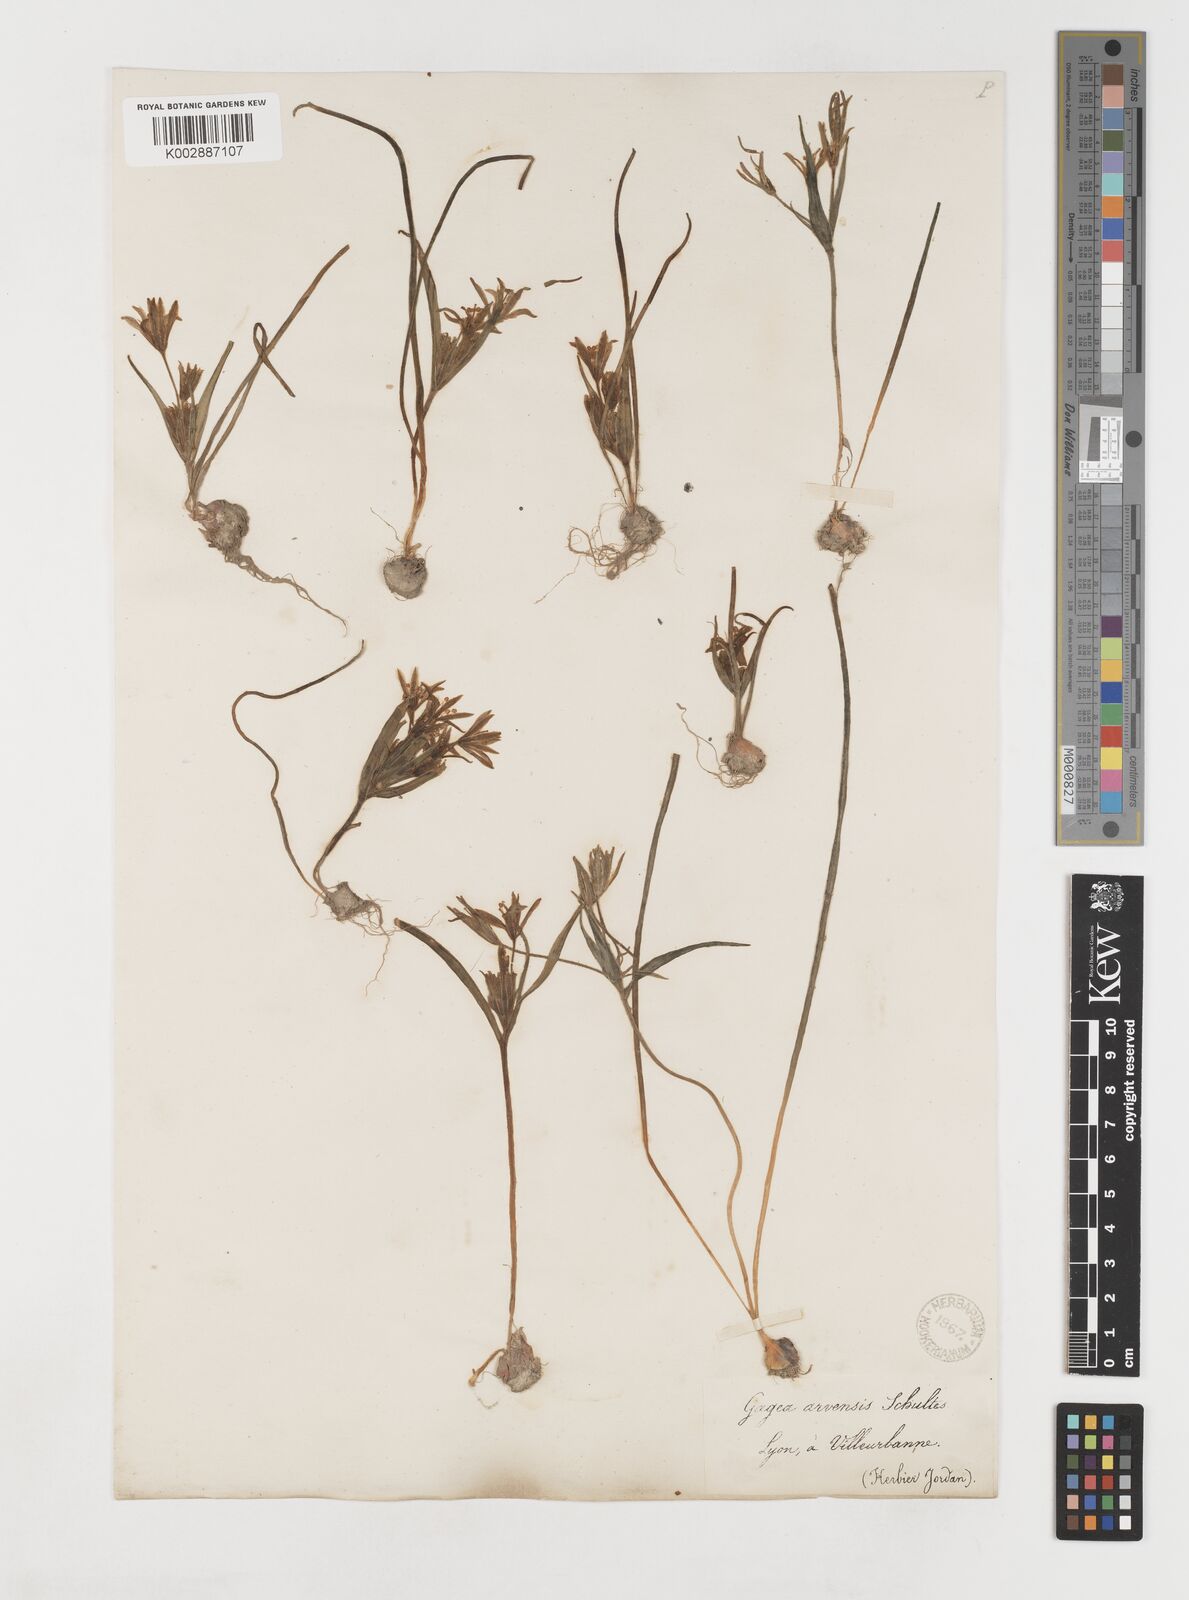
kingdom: Plantae
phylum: Tracheophyta
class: Liliopsida
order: Liliales
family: Liliaceae
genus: Gagea
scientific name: Gagea minima
